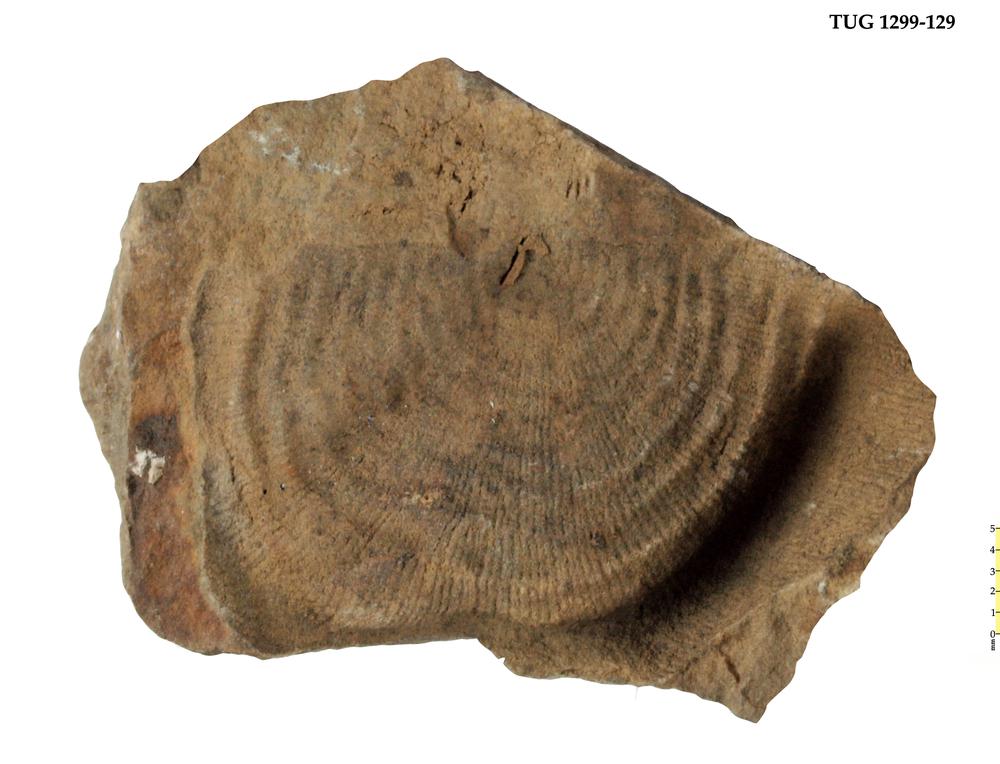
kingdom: Animalia
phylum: Brachiopoda
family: Strophomenidae
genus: Leptaena
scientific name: Leptaena
